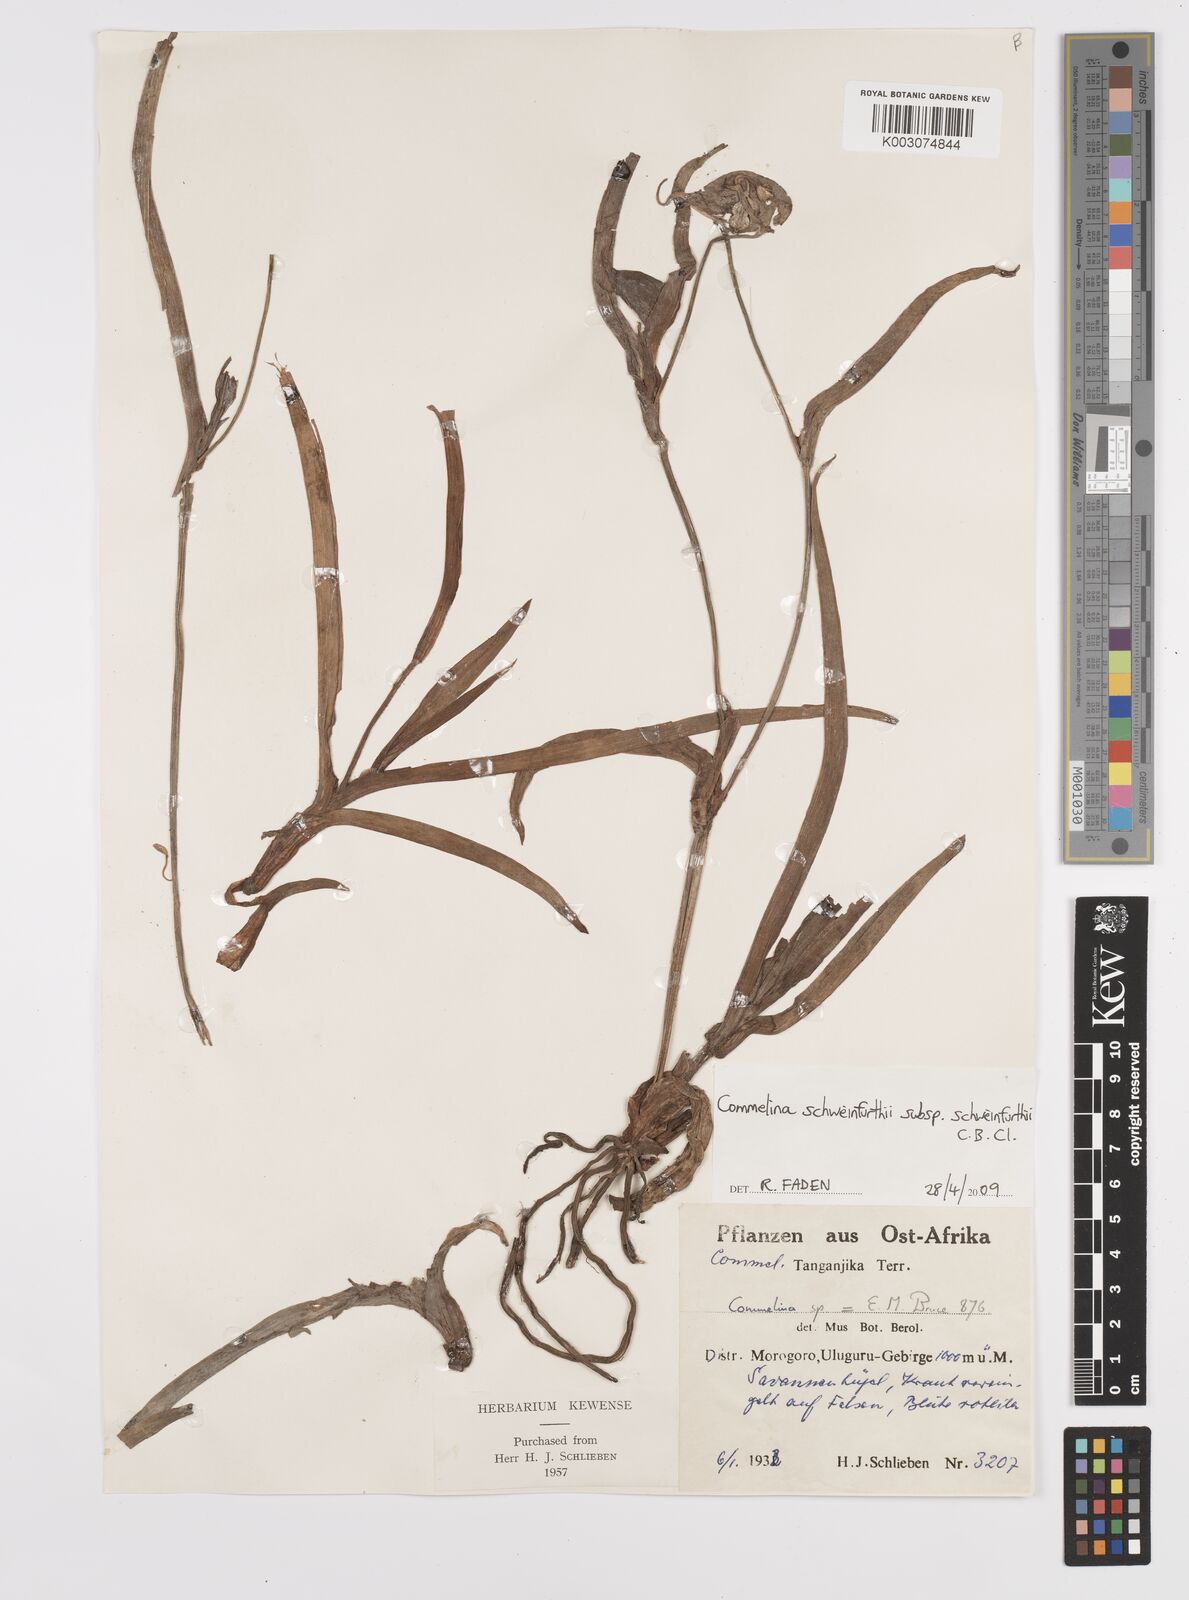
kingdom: Plantae
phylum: Tracheophyta
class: Liliopsida
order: Commelinales
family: Commelinaceae
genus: Commelina
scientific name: Commelina schweinfurthii
